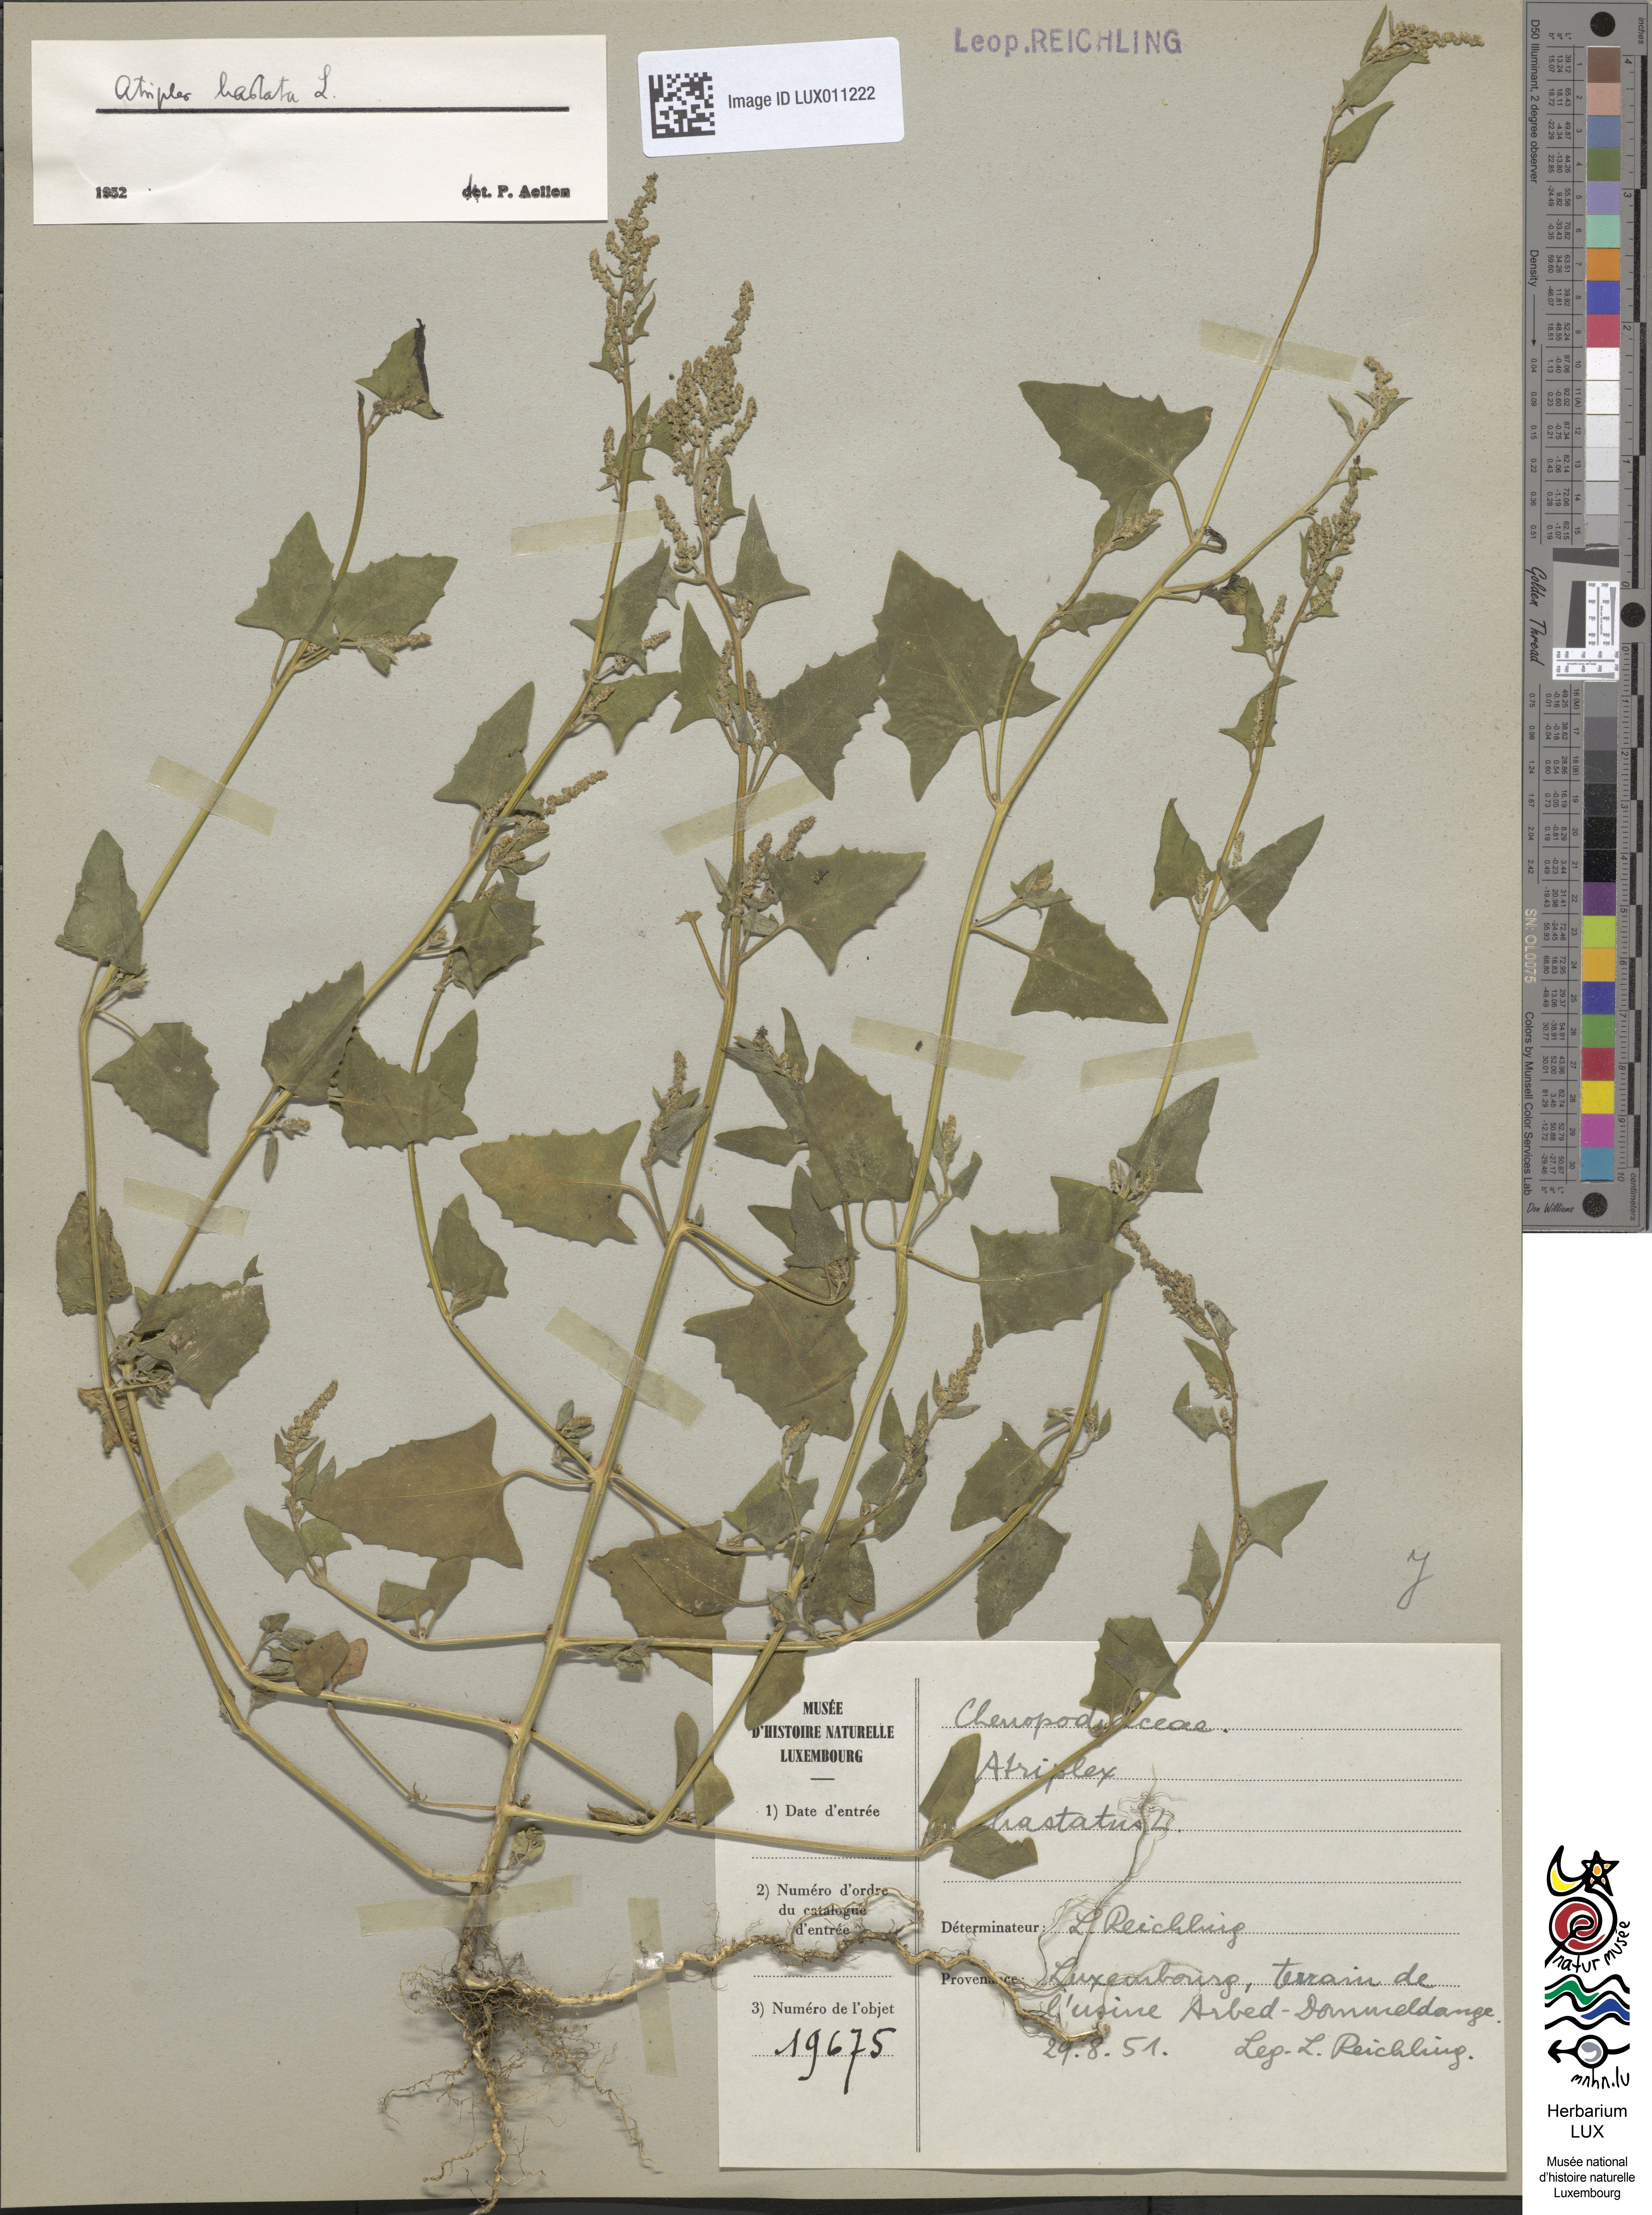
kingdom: Plantae
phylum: Tracheophyta
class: Magnoliopsida
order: Caryophyllales
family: Amaranthaceae
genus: Atriplex
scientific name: Atriplex calotheca
